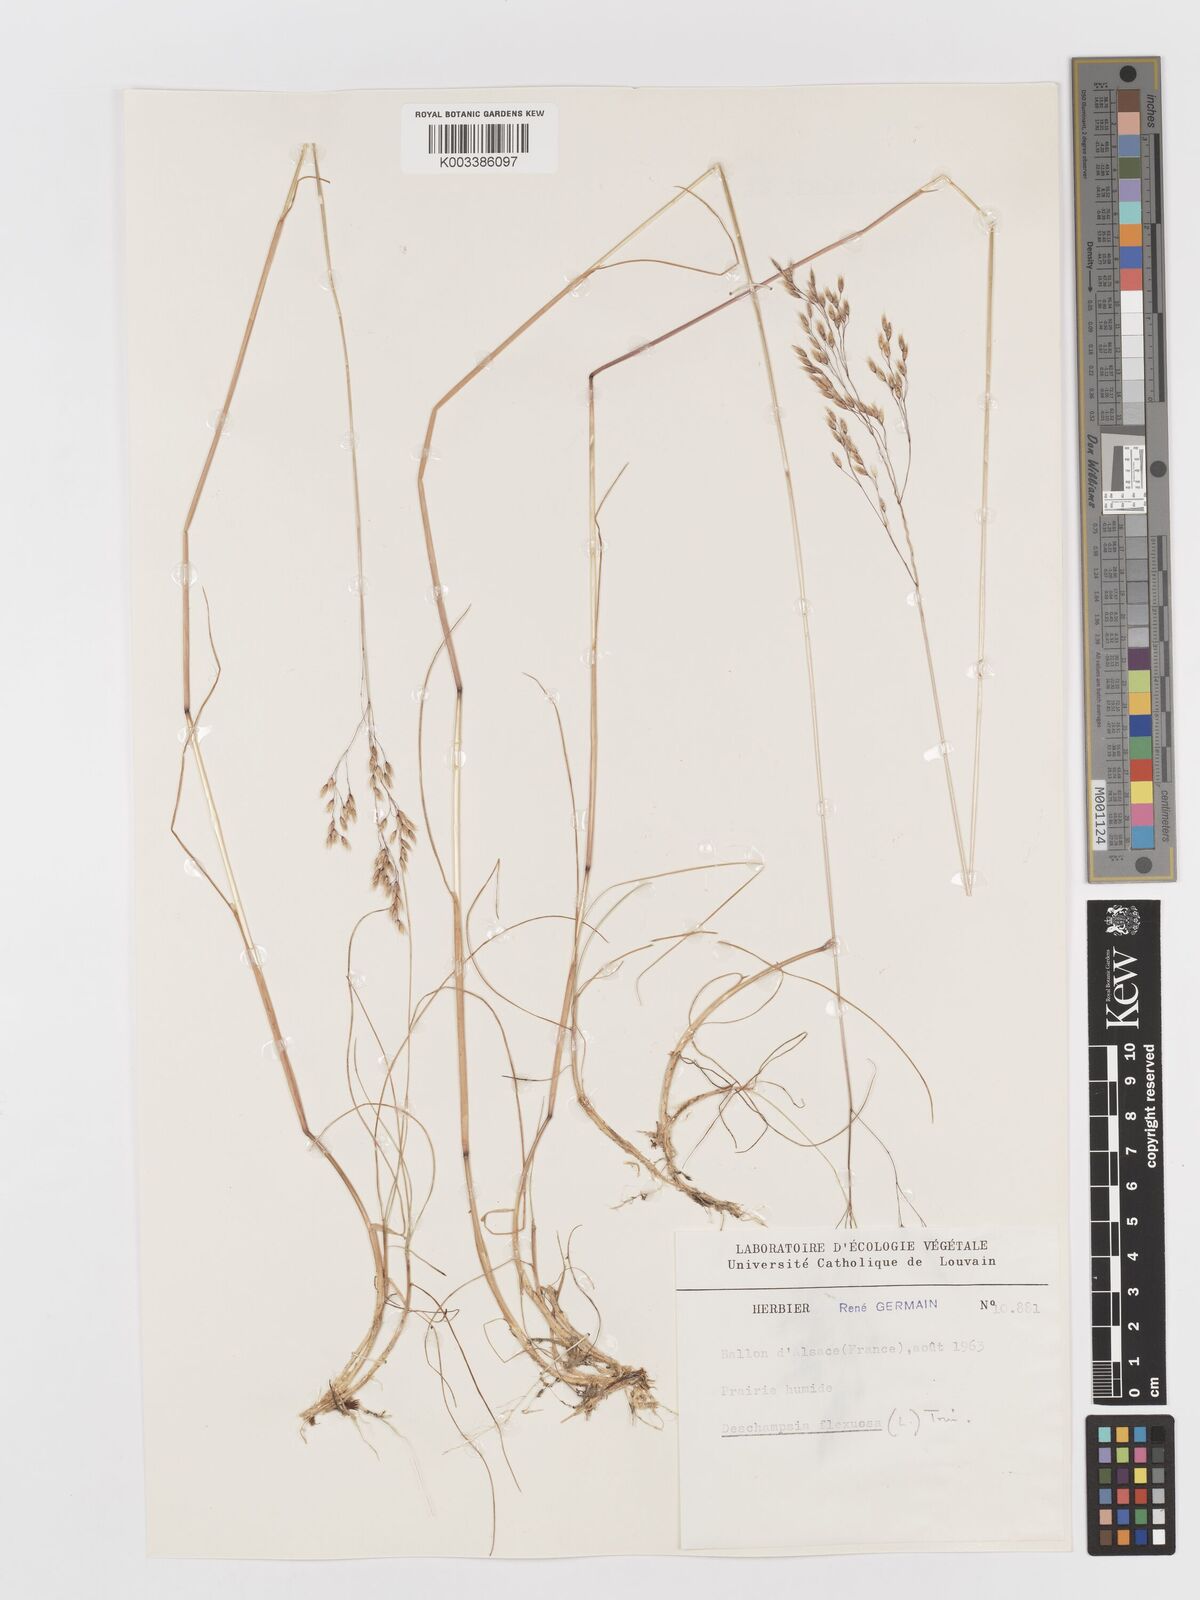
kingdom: Plantae
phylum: Tracheophyta
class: Liliopsida
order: Poales
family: Poaceae
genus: Avenella
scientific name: Avenella flexuosa
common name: Wavy hairgrass
